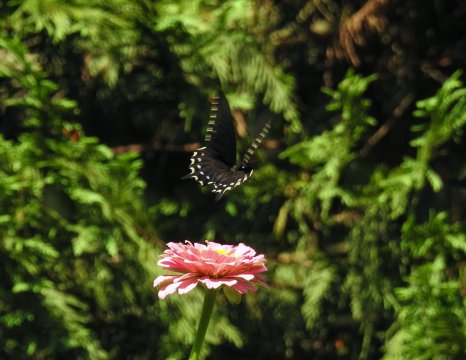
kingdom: Animalia
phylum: Arthropoda
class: Insecta
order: Lepidoptera
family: Papilionidae
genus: Battus
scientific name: Battus philenor
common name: Pipevine Swallowtail
